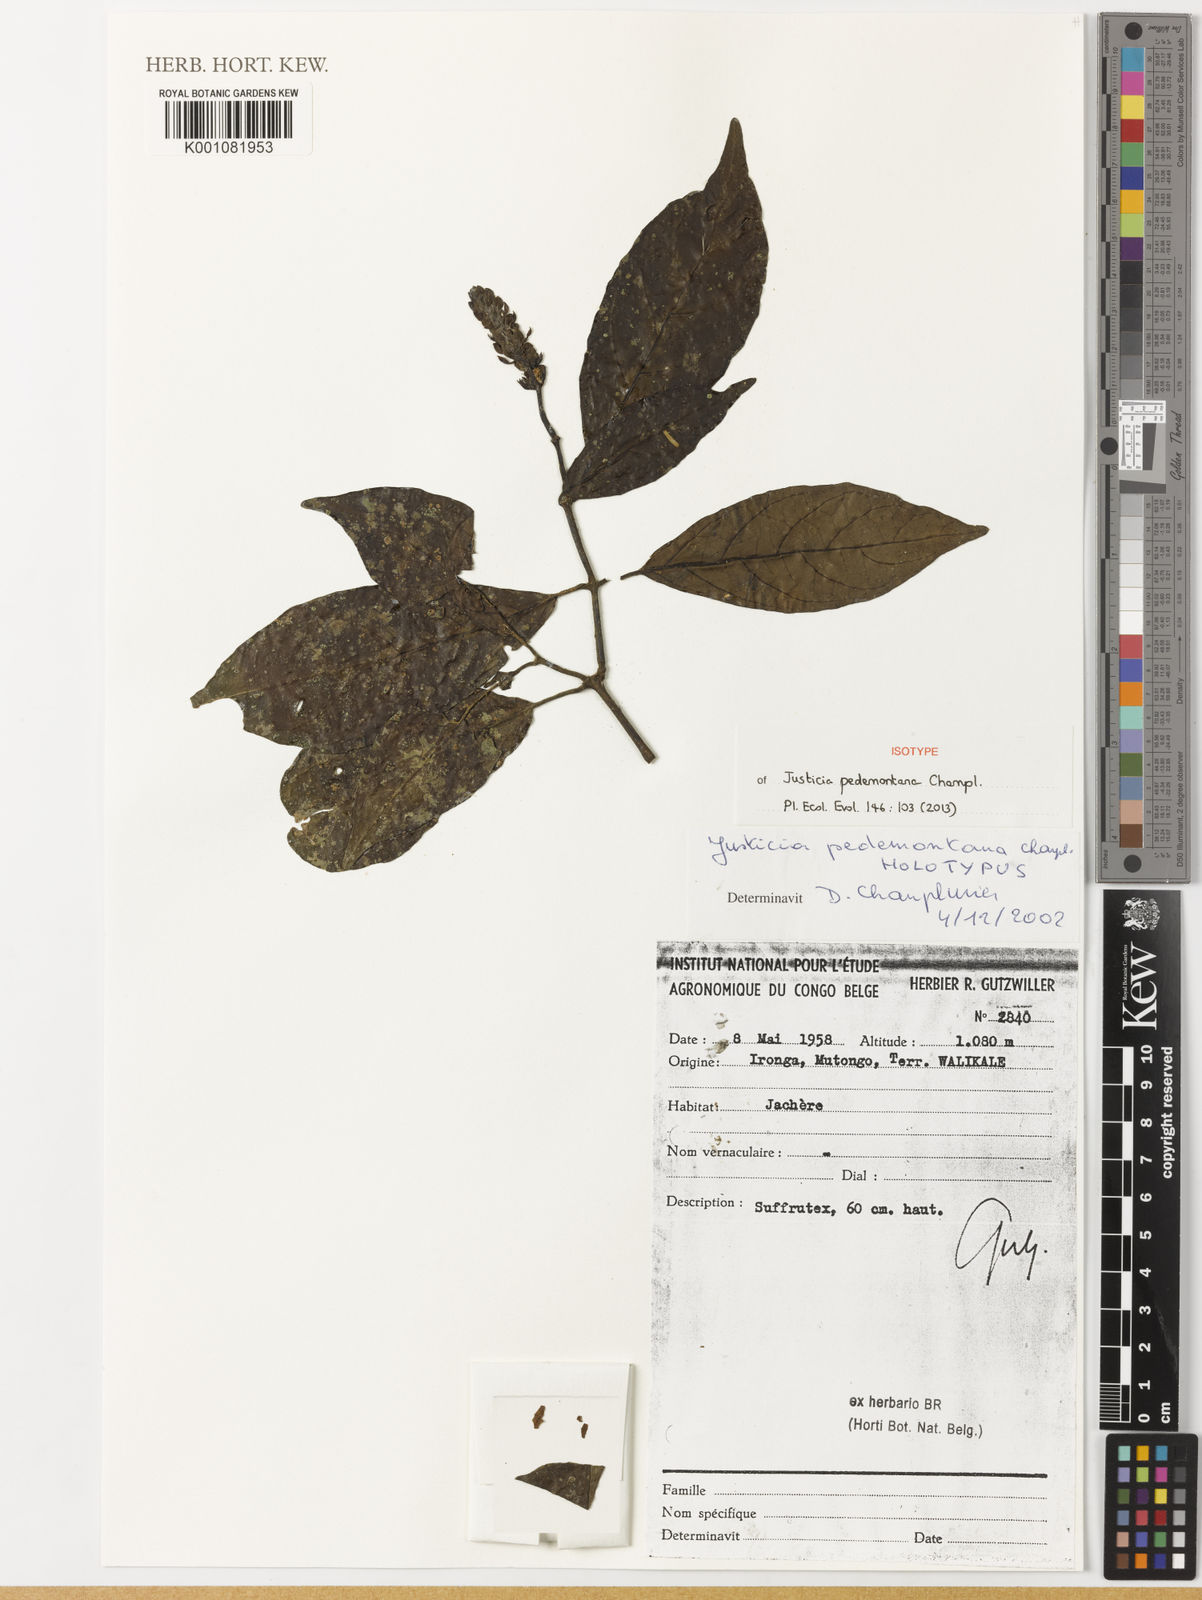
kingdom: Plantae
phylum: Tracheophyta
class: Magnoliopsida
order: Lamiales
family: Acanthaceae
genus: Justicia
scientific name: Justicia pedemontana
